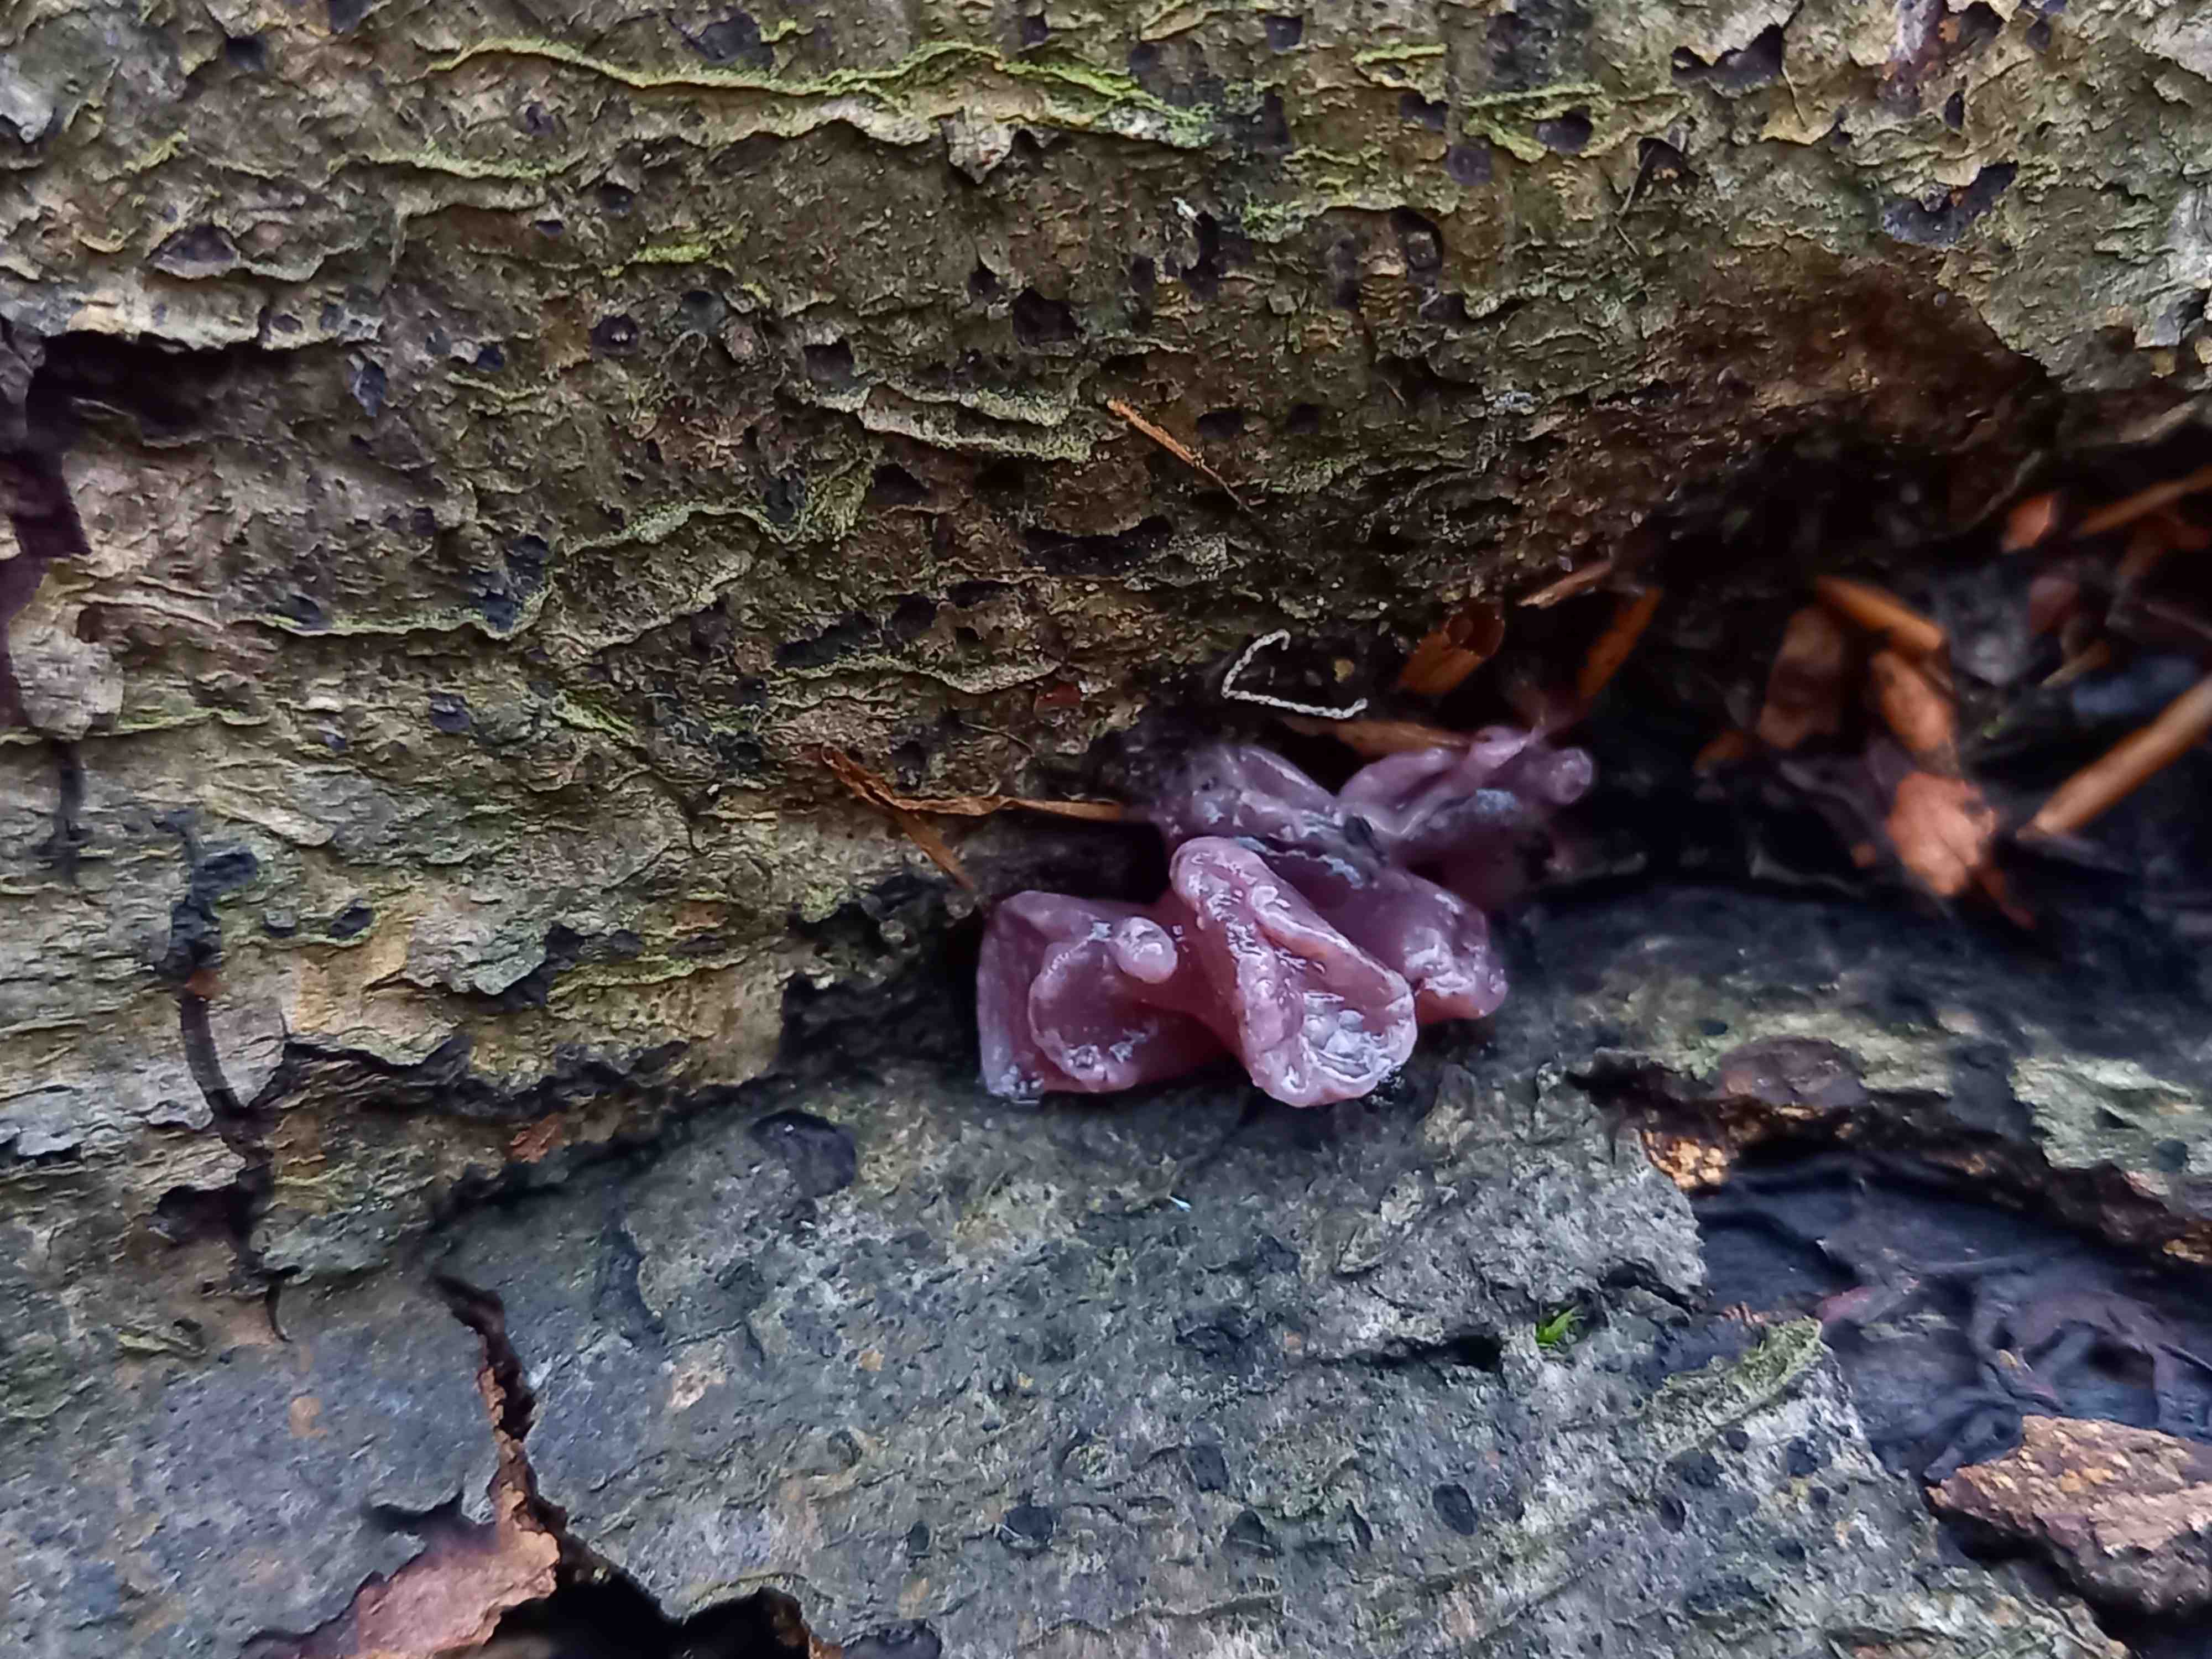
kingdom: Fungi
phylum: Ascomycota
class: Leotiomycetes
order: Helotiales
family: Gelatinodiscaceae
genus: Ascocoryne
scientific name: Ascocoryne sarcoides
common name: rødlilla sejskive
